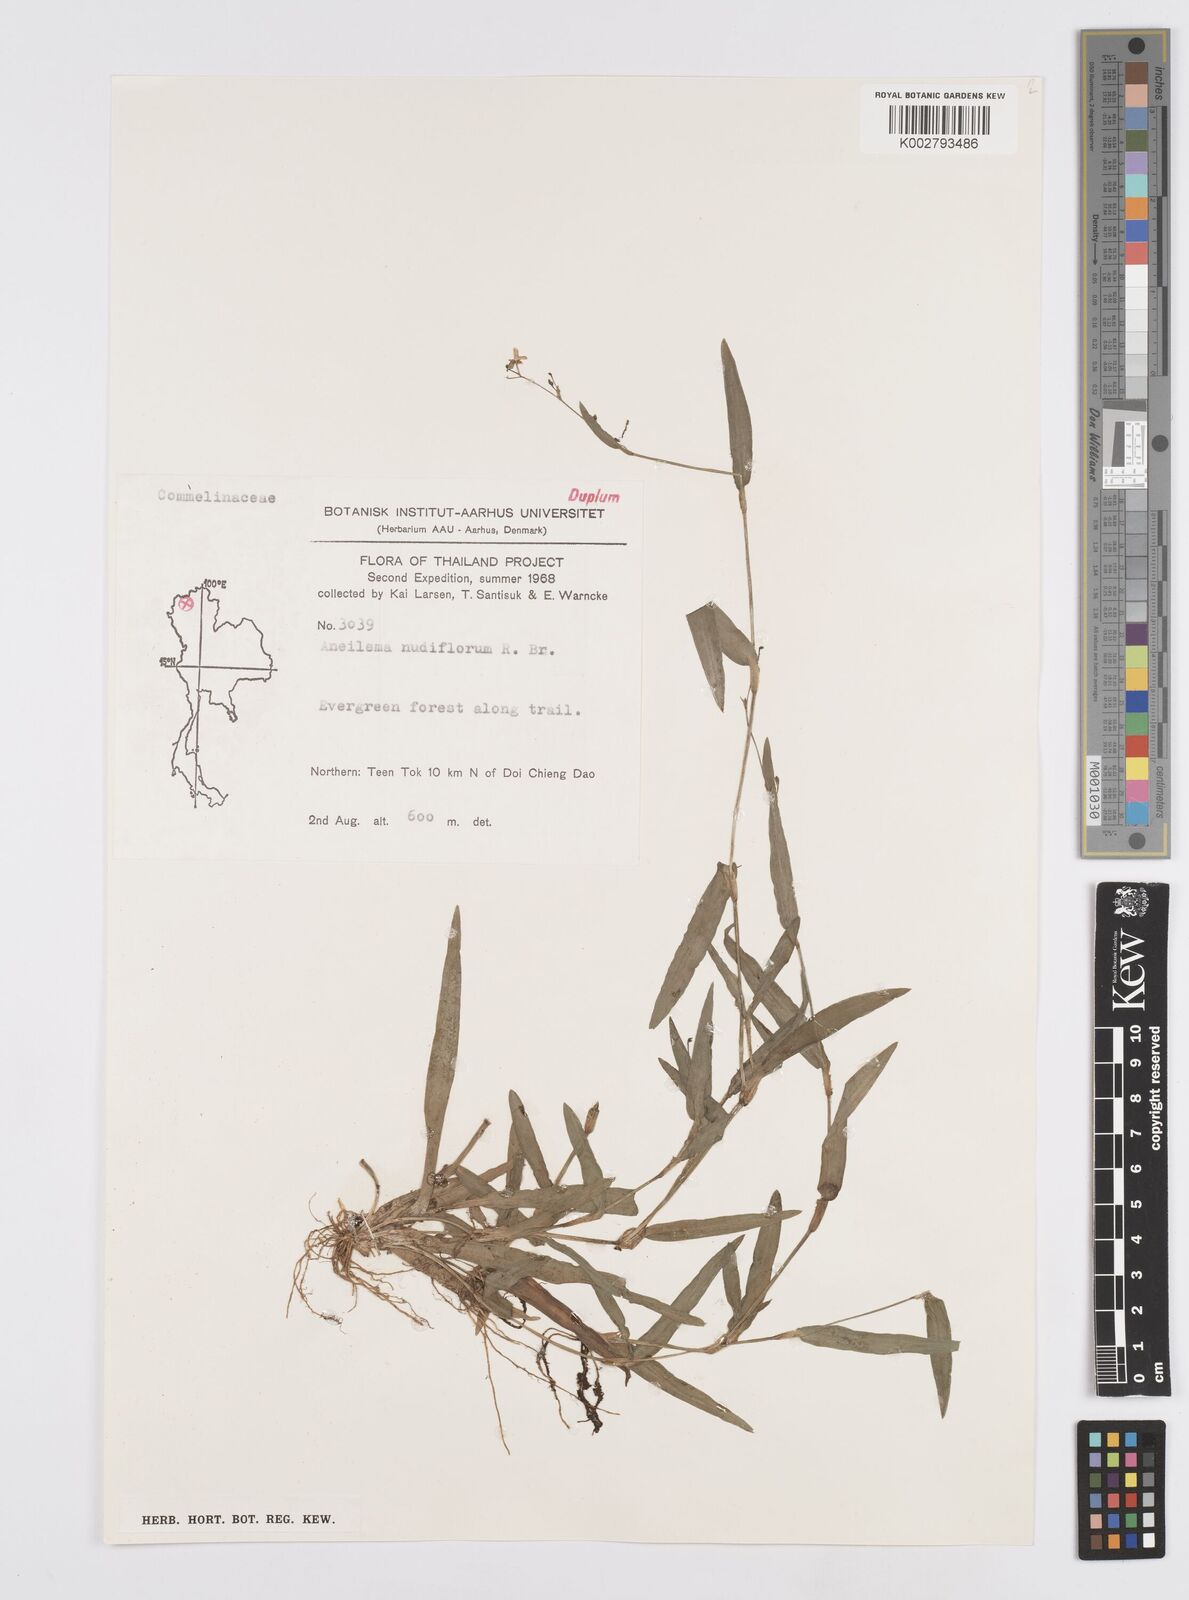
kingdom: Plantae
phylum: Tracheophyta
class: Liliopsida
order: Commelinales
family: Commelinaceae
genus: Murdannia
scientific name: Murdannia nudiflora
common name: Nakedstem dewflower
